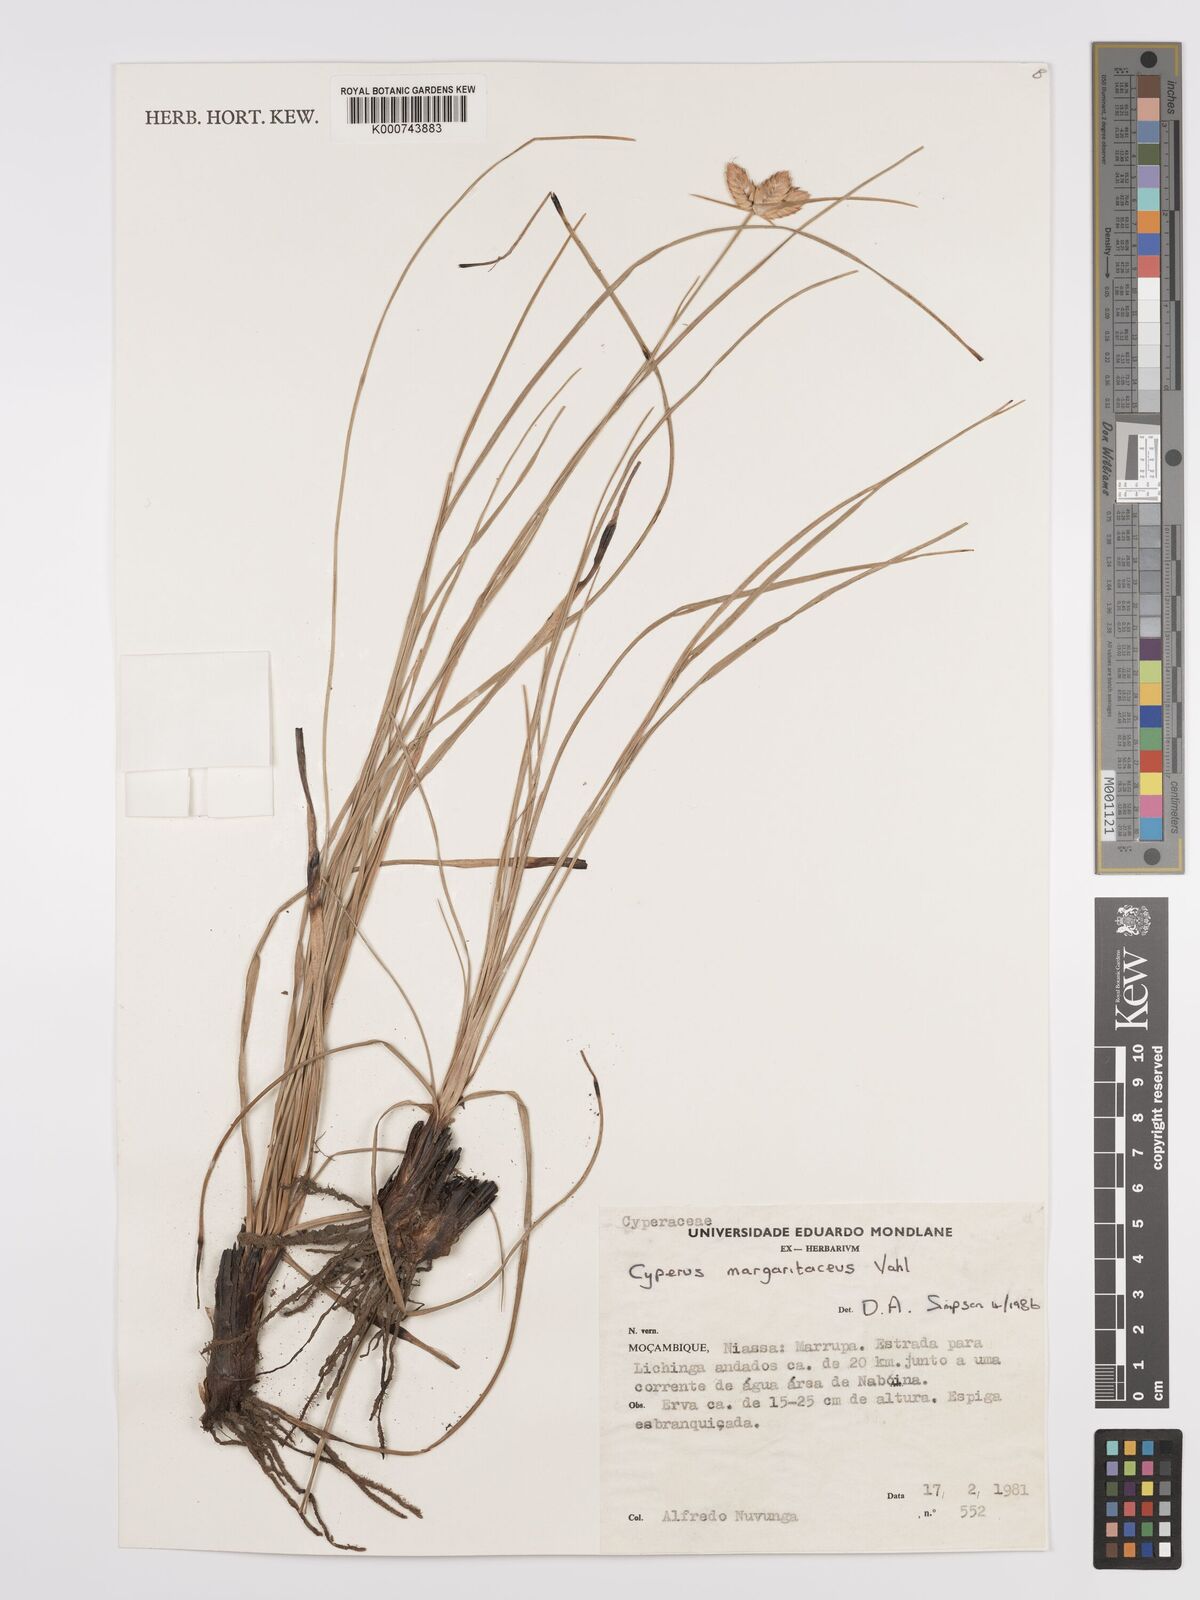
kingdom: Plantae
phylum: Tracheophyta
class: Liliopsida
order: Poales
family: Cyperaceae
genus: Cyperus
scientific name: Cyperus margaritaceus
